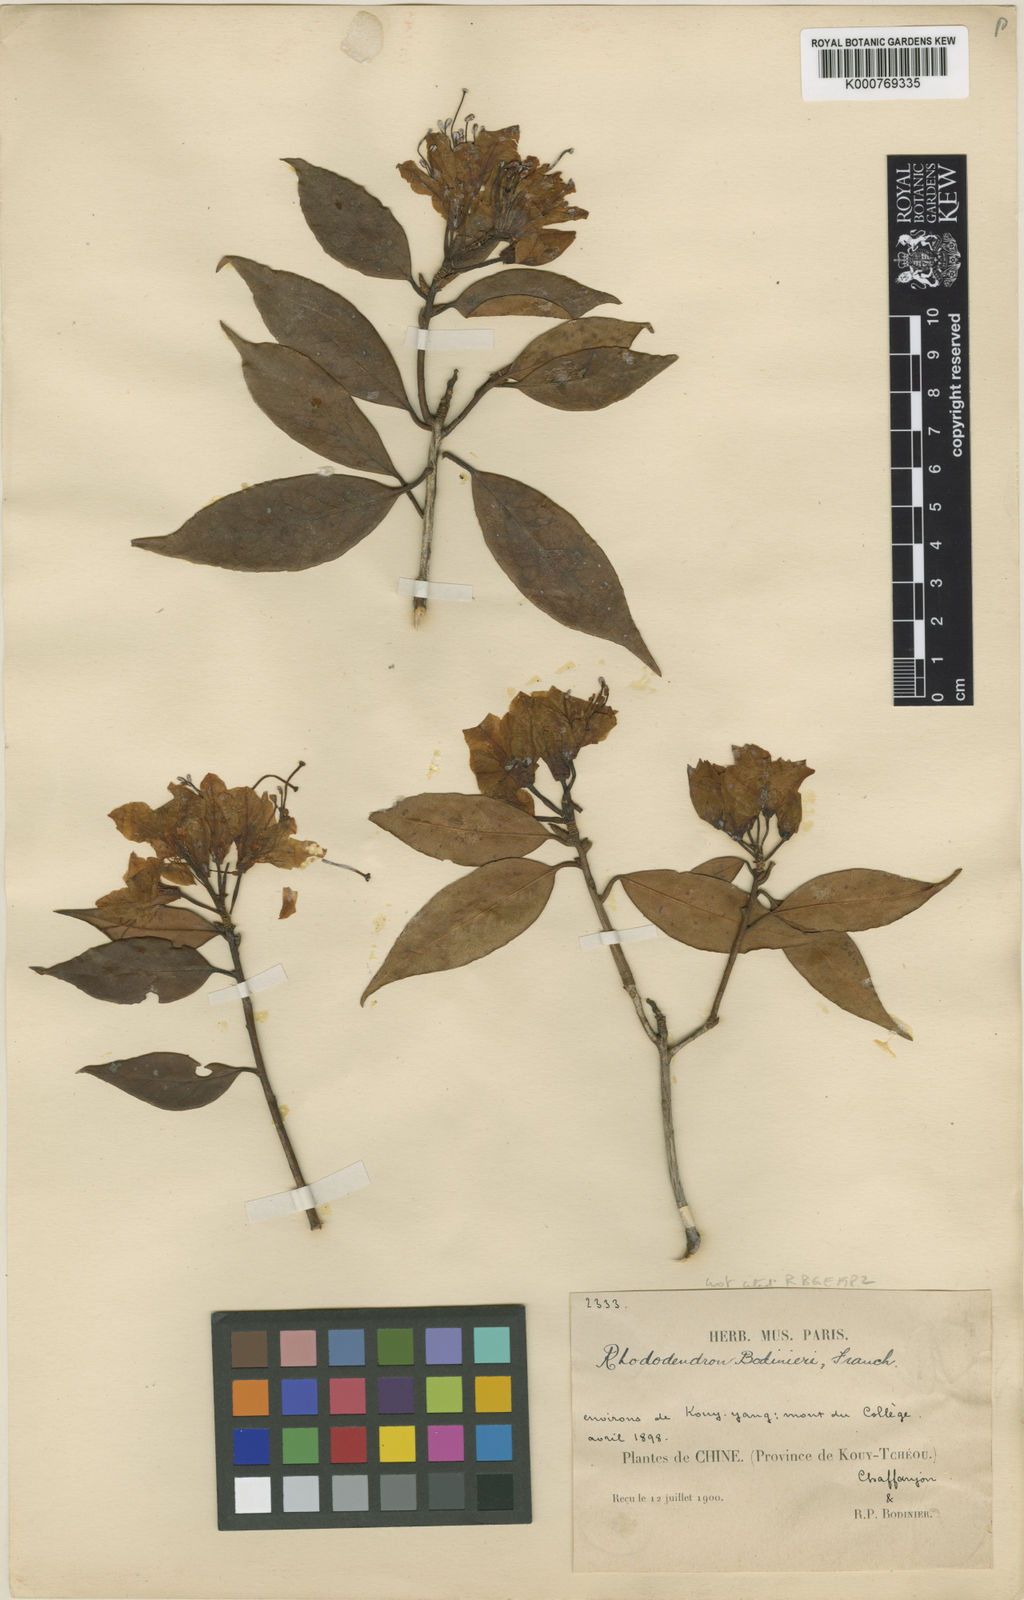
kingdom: Plantae
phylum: Tracheophyta
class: Magnoliopsida
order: Ericales
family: Ericaceae
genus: Rhododendron
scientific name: Rhododendron rigidum
